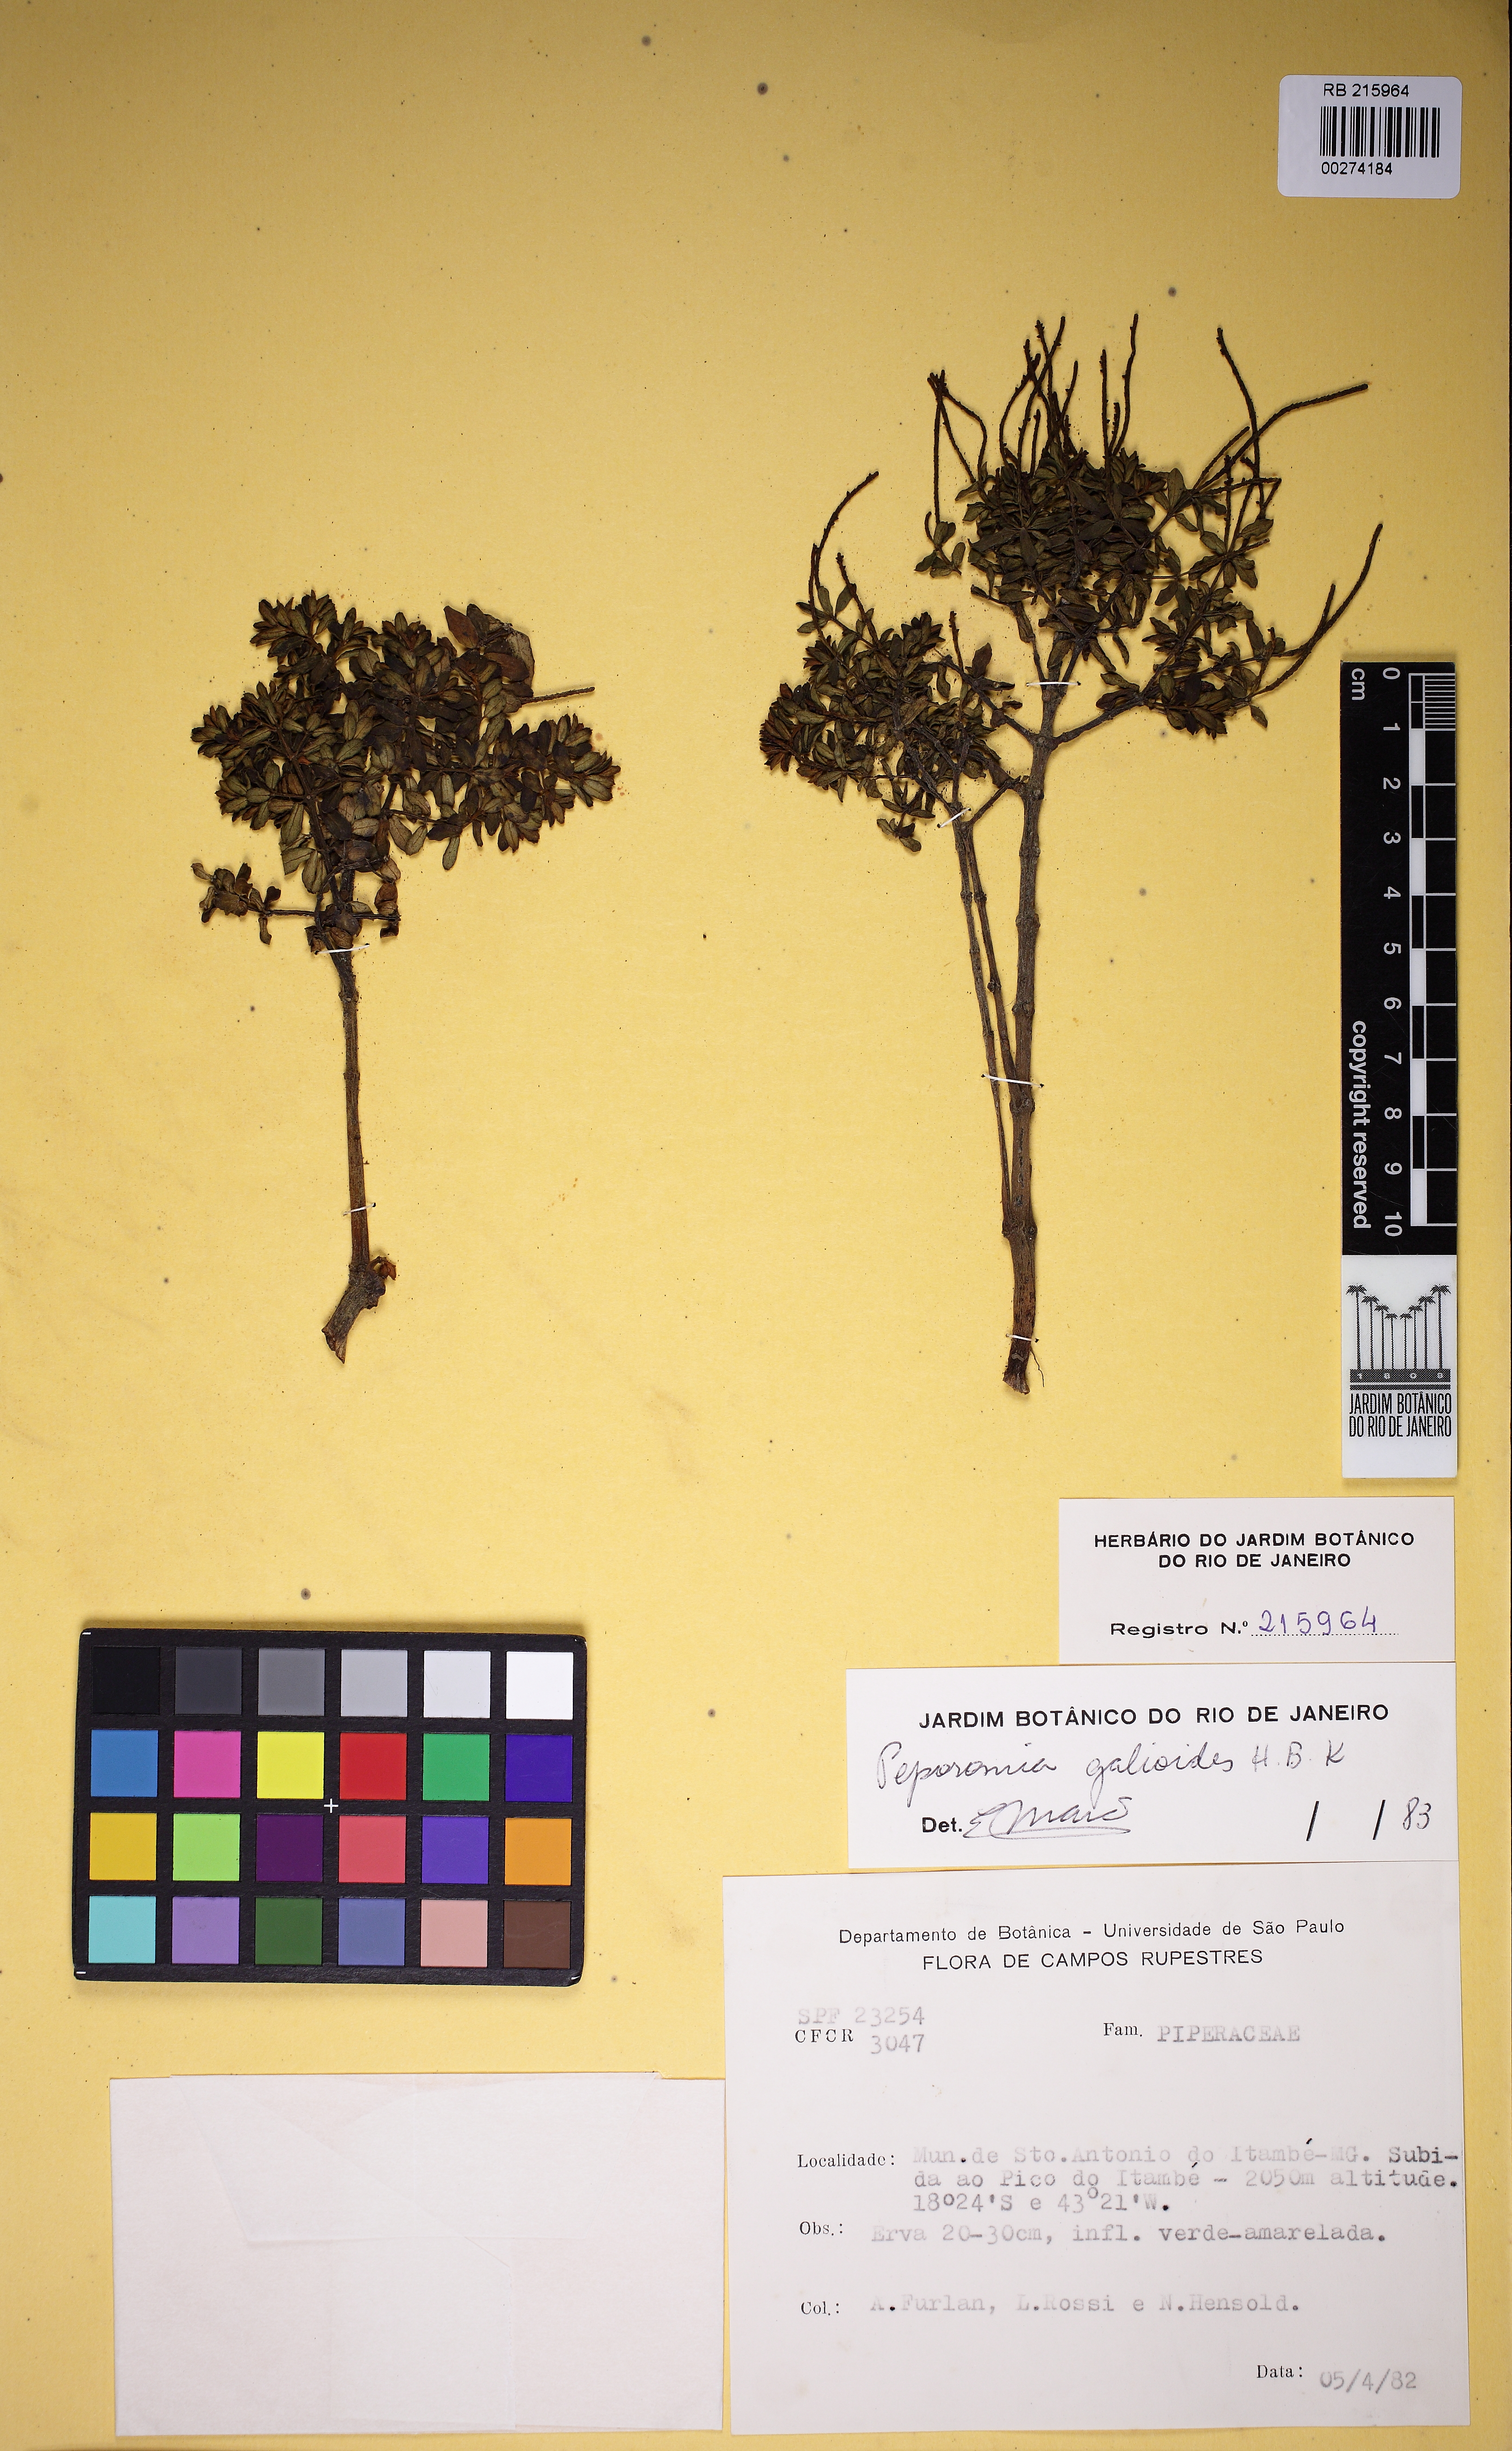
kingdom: Plantae
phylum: Tracheophyta
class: Magnoliopsida
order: Piperales
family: Piperaceae
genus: Peperomia
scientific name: Peperomia galioides
